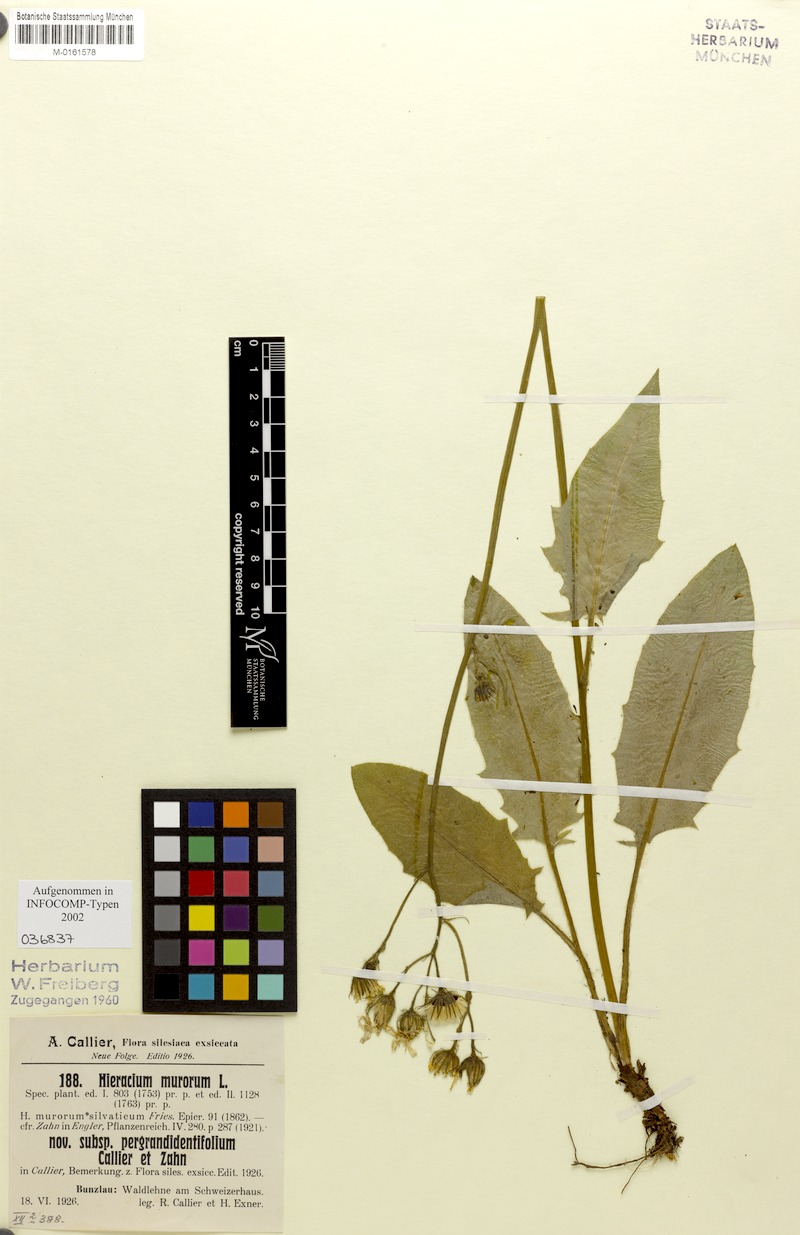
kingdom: Plantae
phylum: Tracheophyta
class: Magnoliopsida
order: Asterales
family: Asteraceae
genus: Hieracium
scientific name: Hieracium murorum
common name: Wall hawkweed
